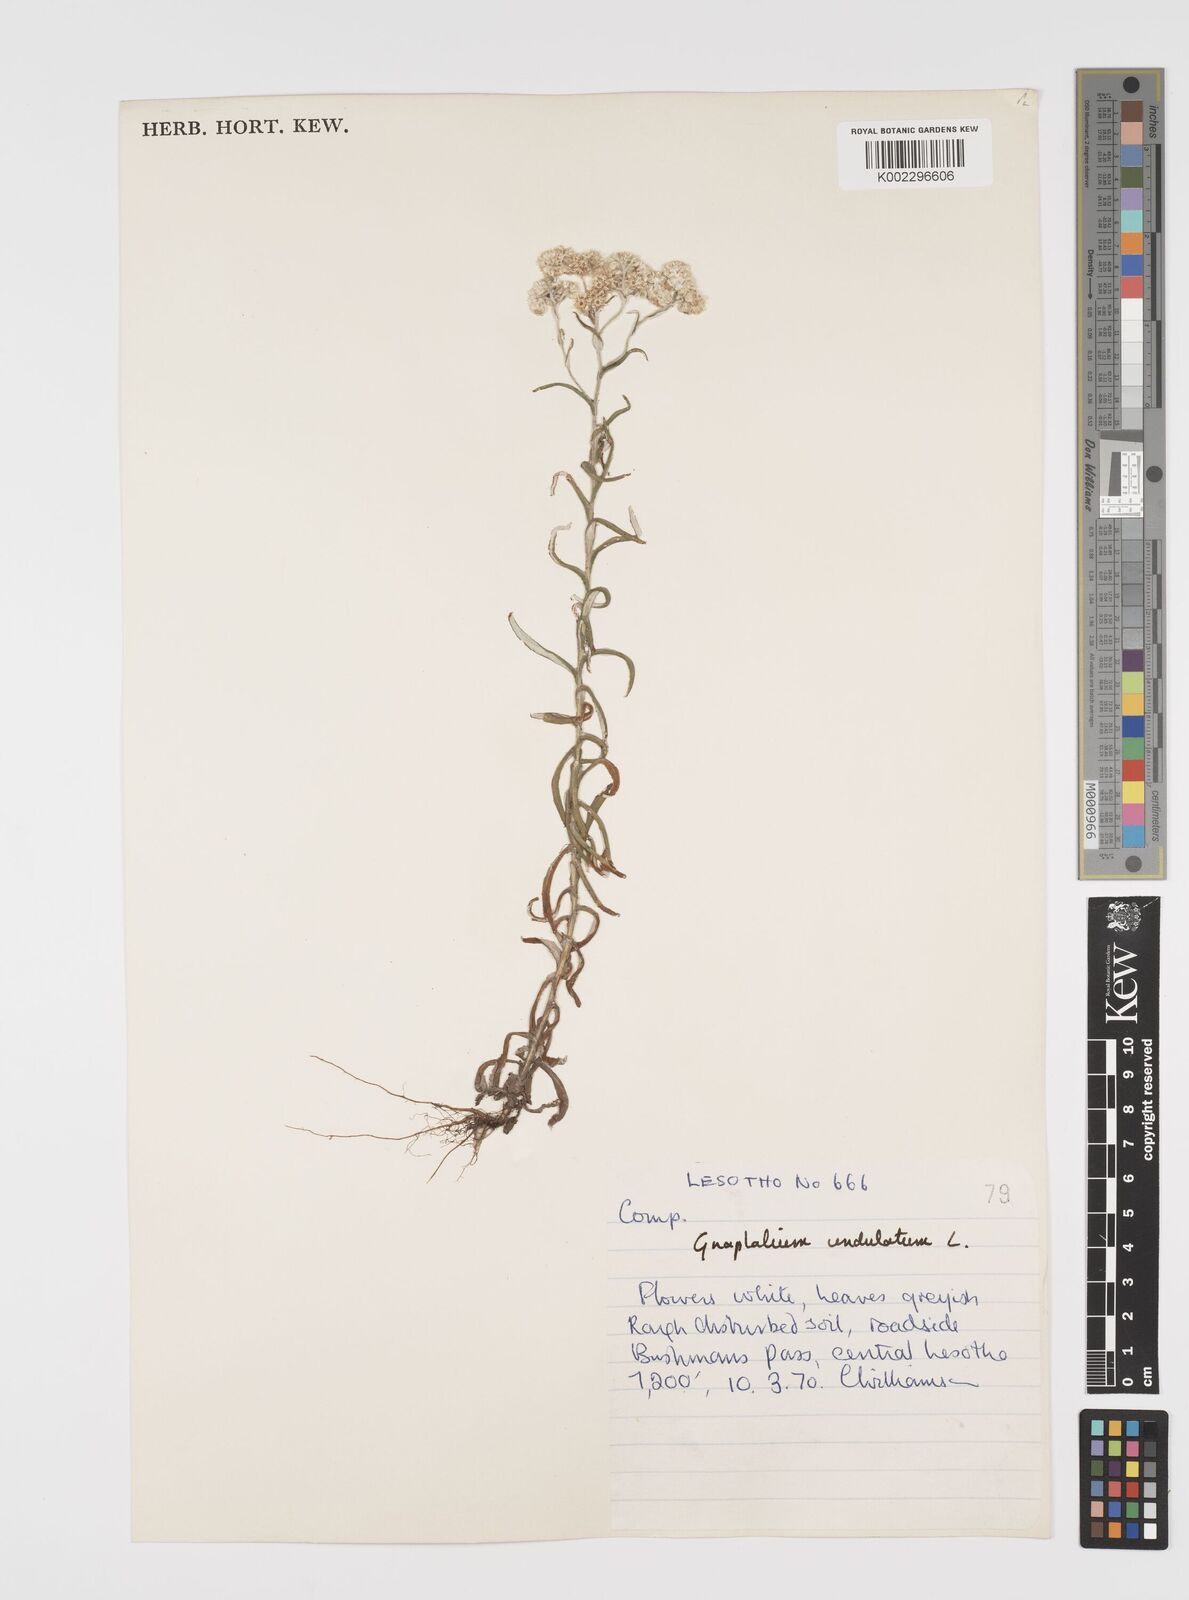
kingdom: Plantae
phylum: Tracheophyta
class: Magnoliopsida
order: Asterales
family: Asteraceae
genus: Pseudognaphalium
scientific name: Pseudognaphalium undulatum
